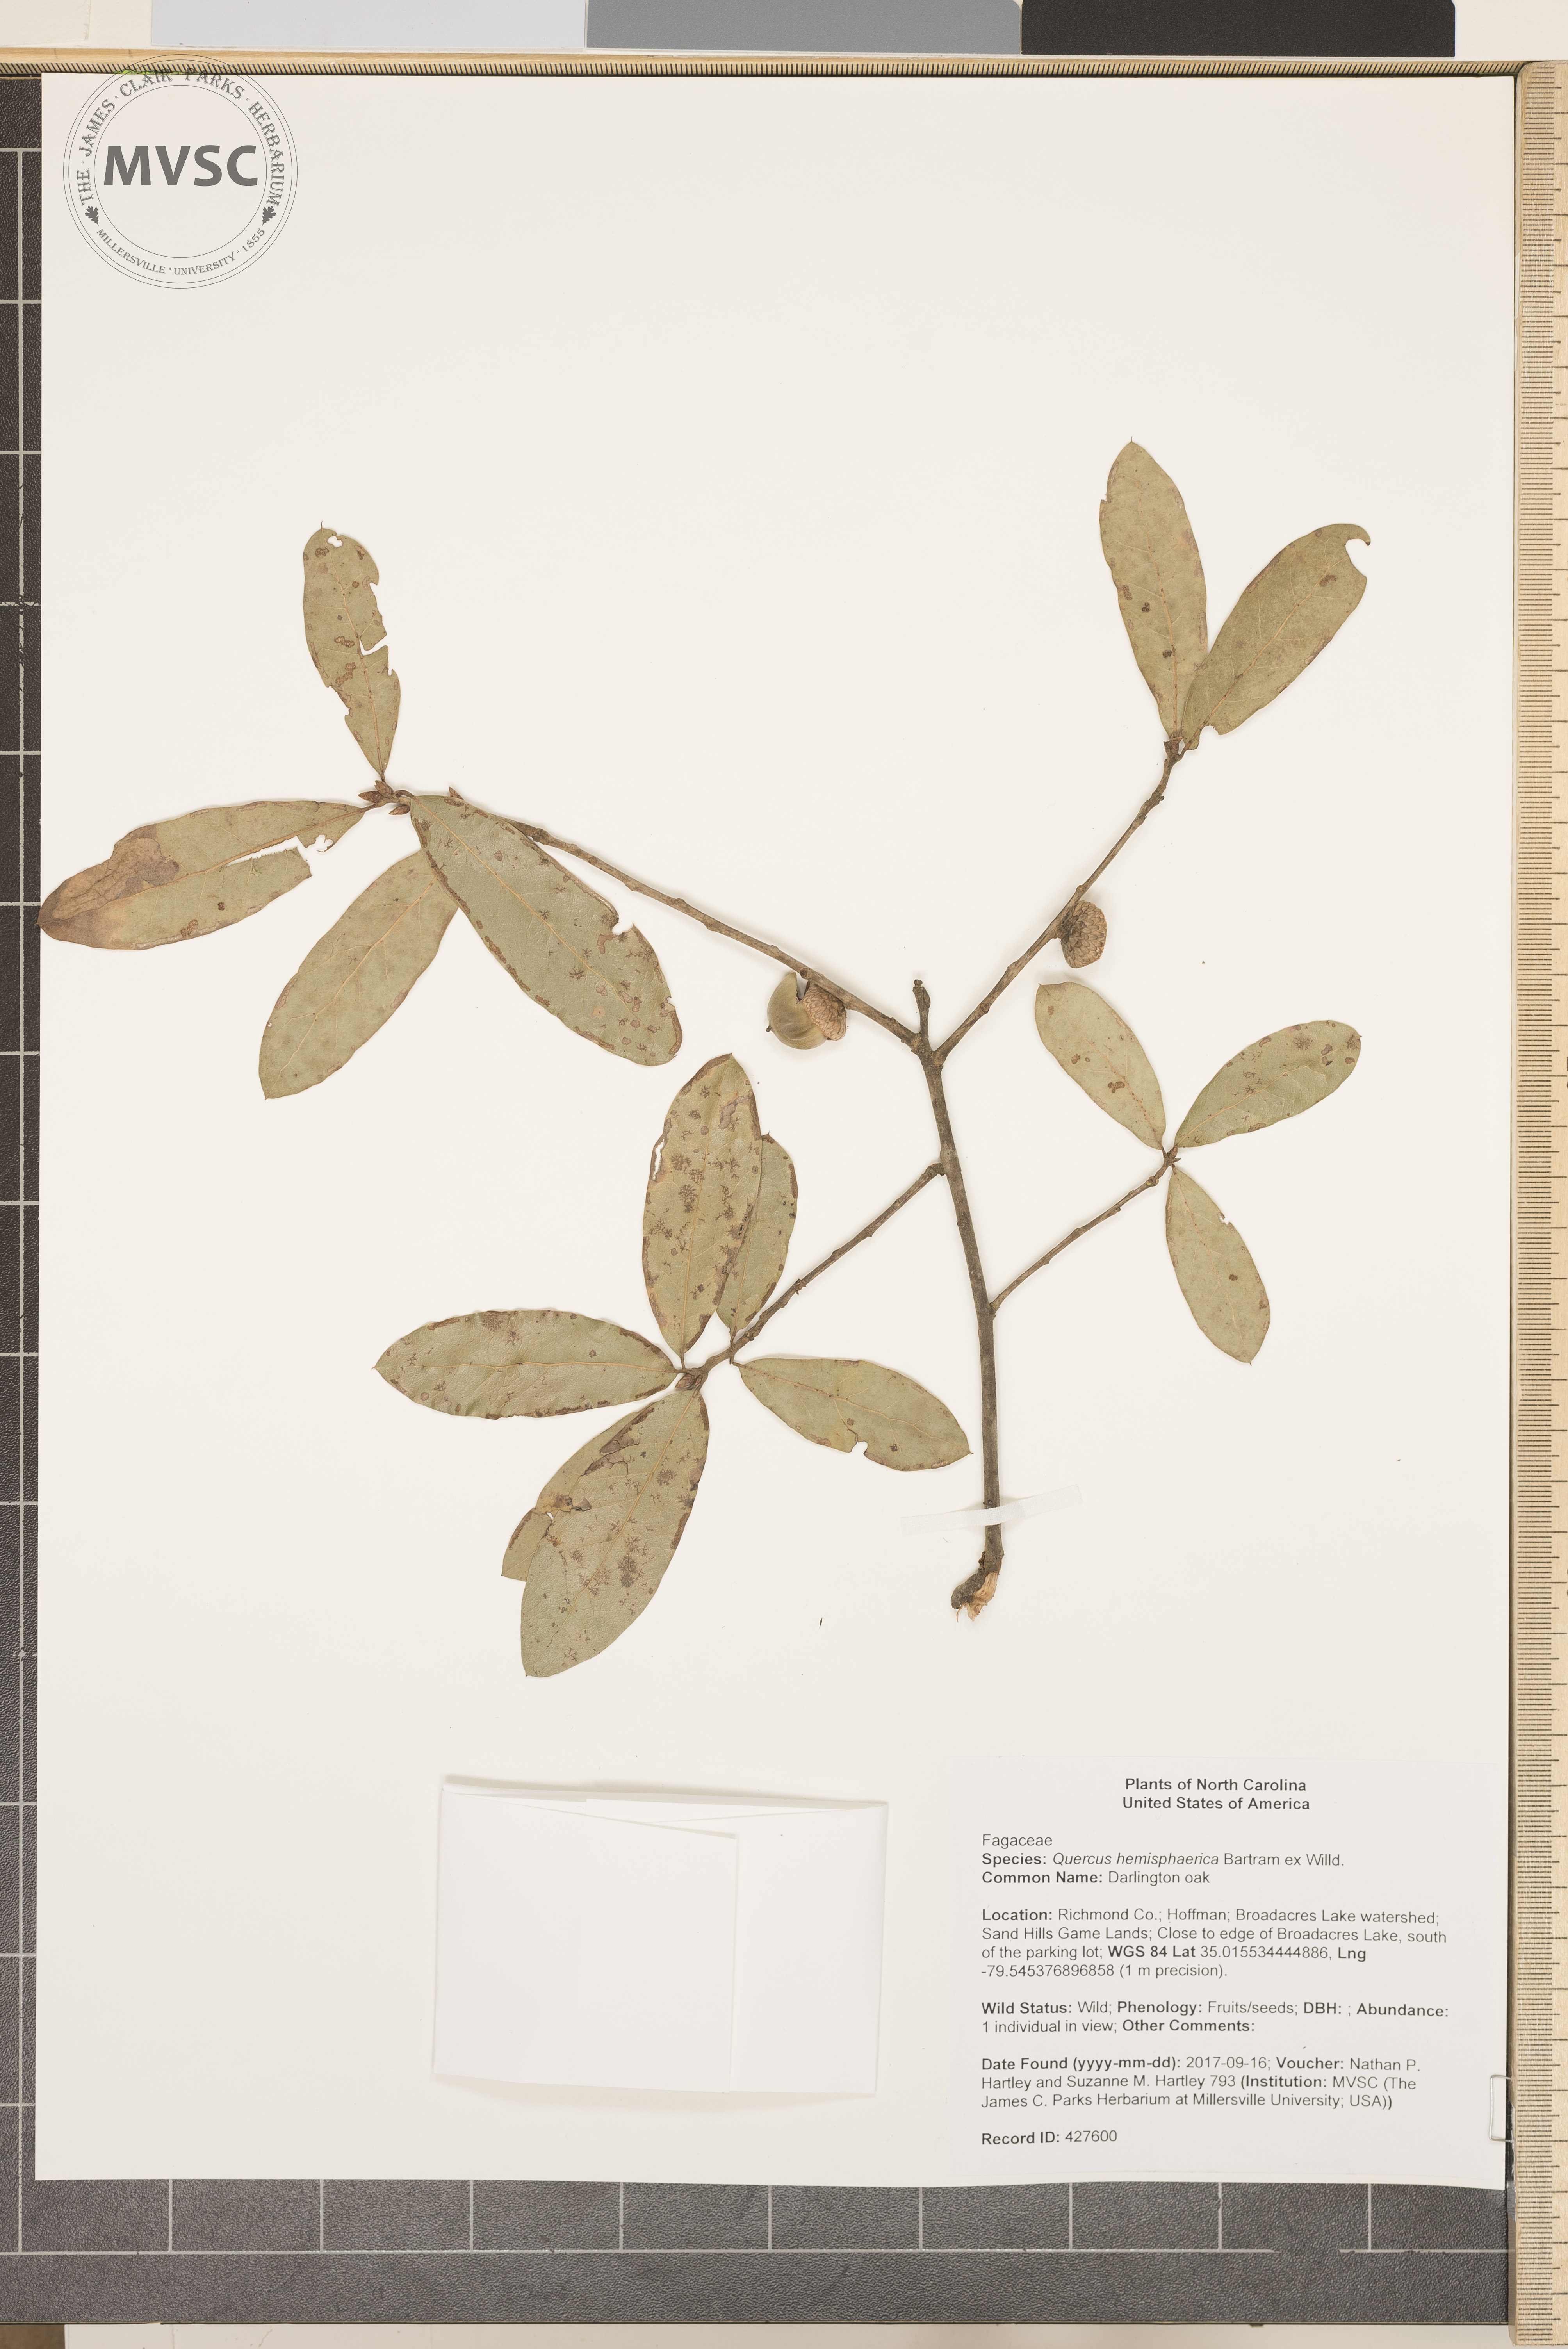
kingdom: Plantae
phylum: Tracheophyta
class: Magnoliopsida
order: Fagales
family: Fagaceae
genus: Quercus
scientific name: Quercus hemisphaerica
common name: Darlington oak
